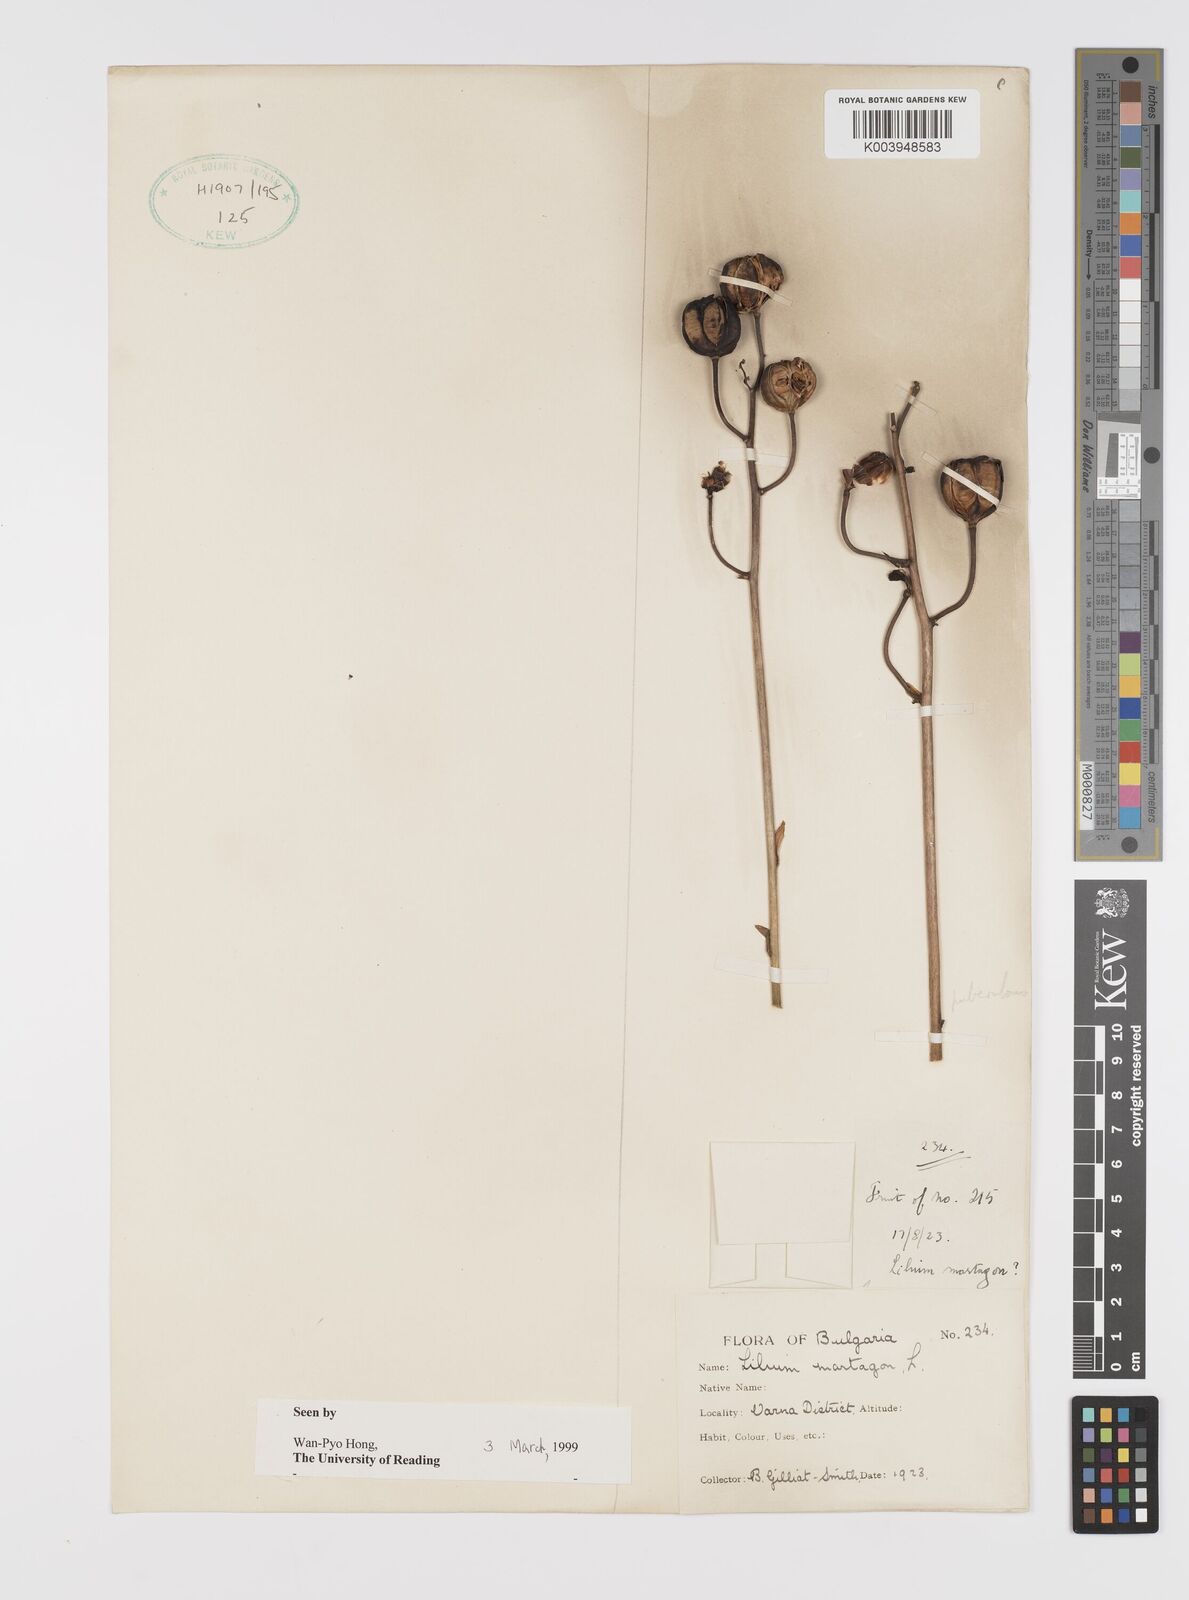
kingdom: Plantae
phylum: Tracheophyta
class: Liliopsida
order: Liliales
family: Liliaceae
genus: Lilium
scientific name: Lilium martagon
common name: Martagon lily
